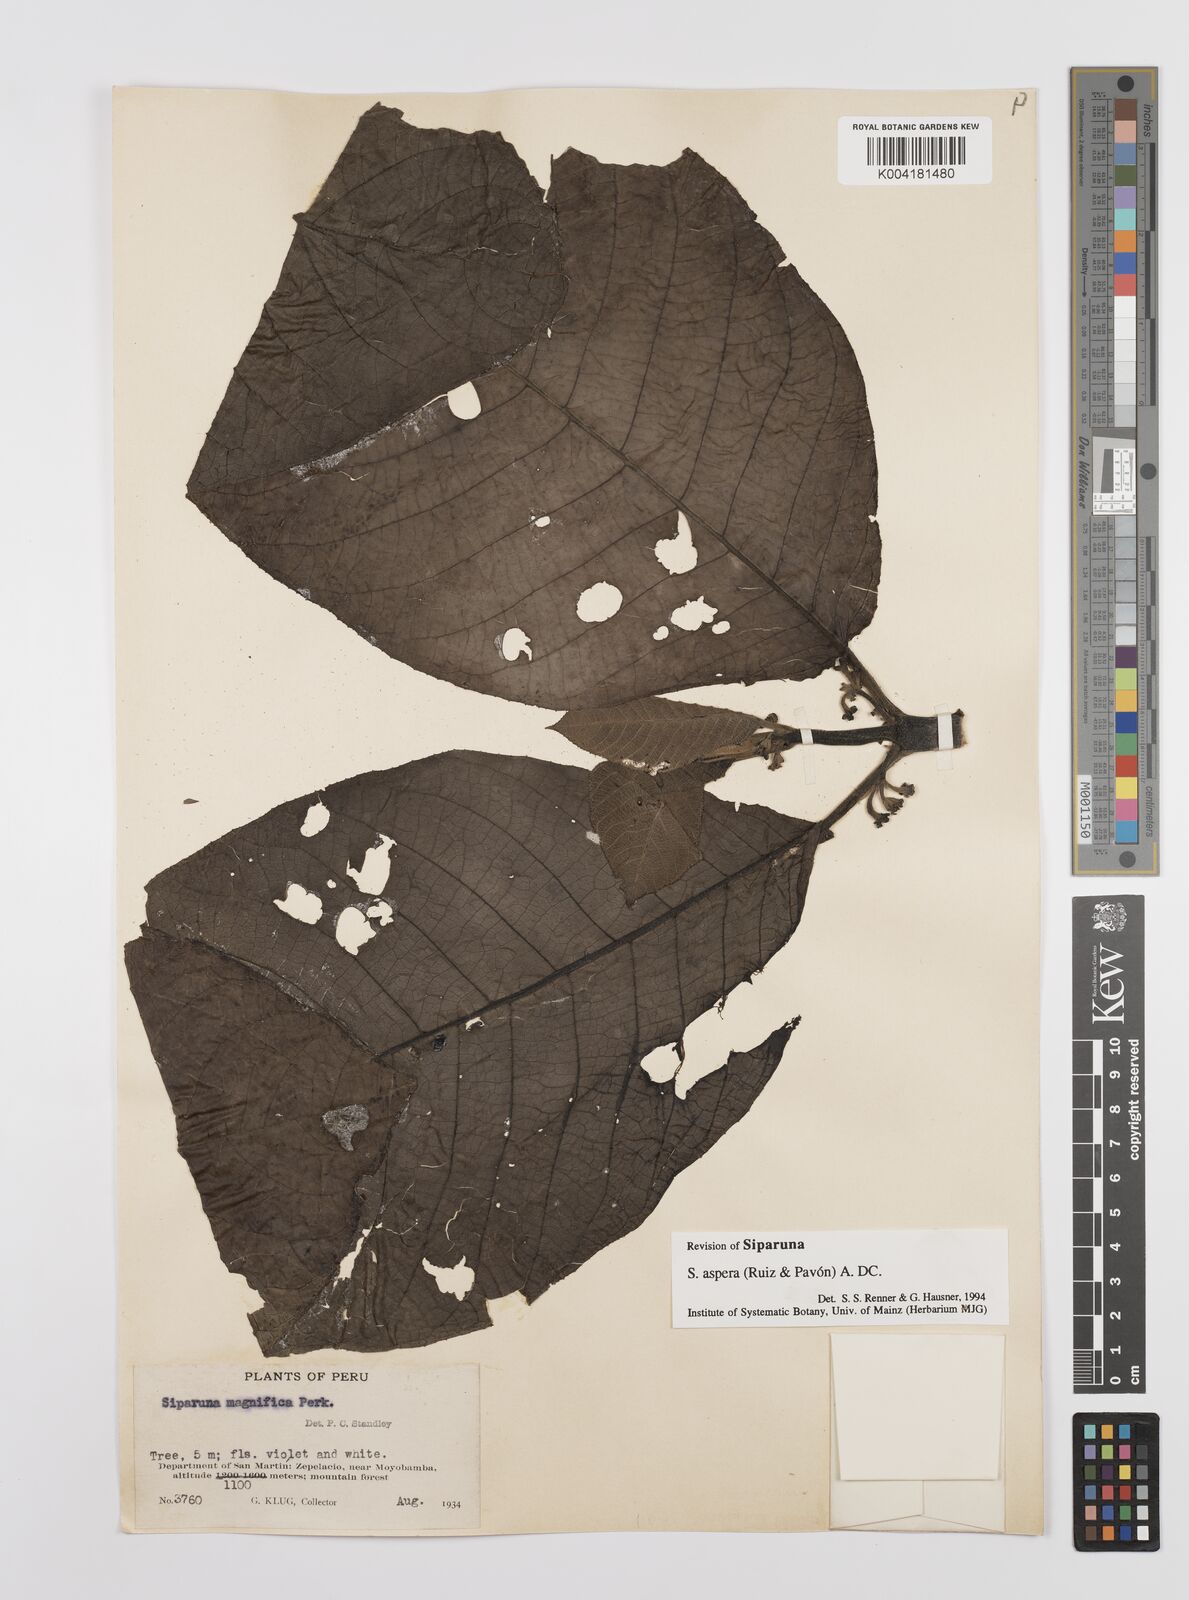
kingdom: Plantae
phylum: Tracheophyta
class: Magnoliopsida
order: Laurales
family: Siparunaceae
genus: Siparuna
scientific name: Siparuna aspera
